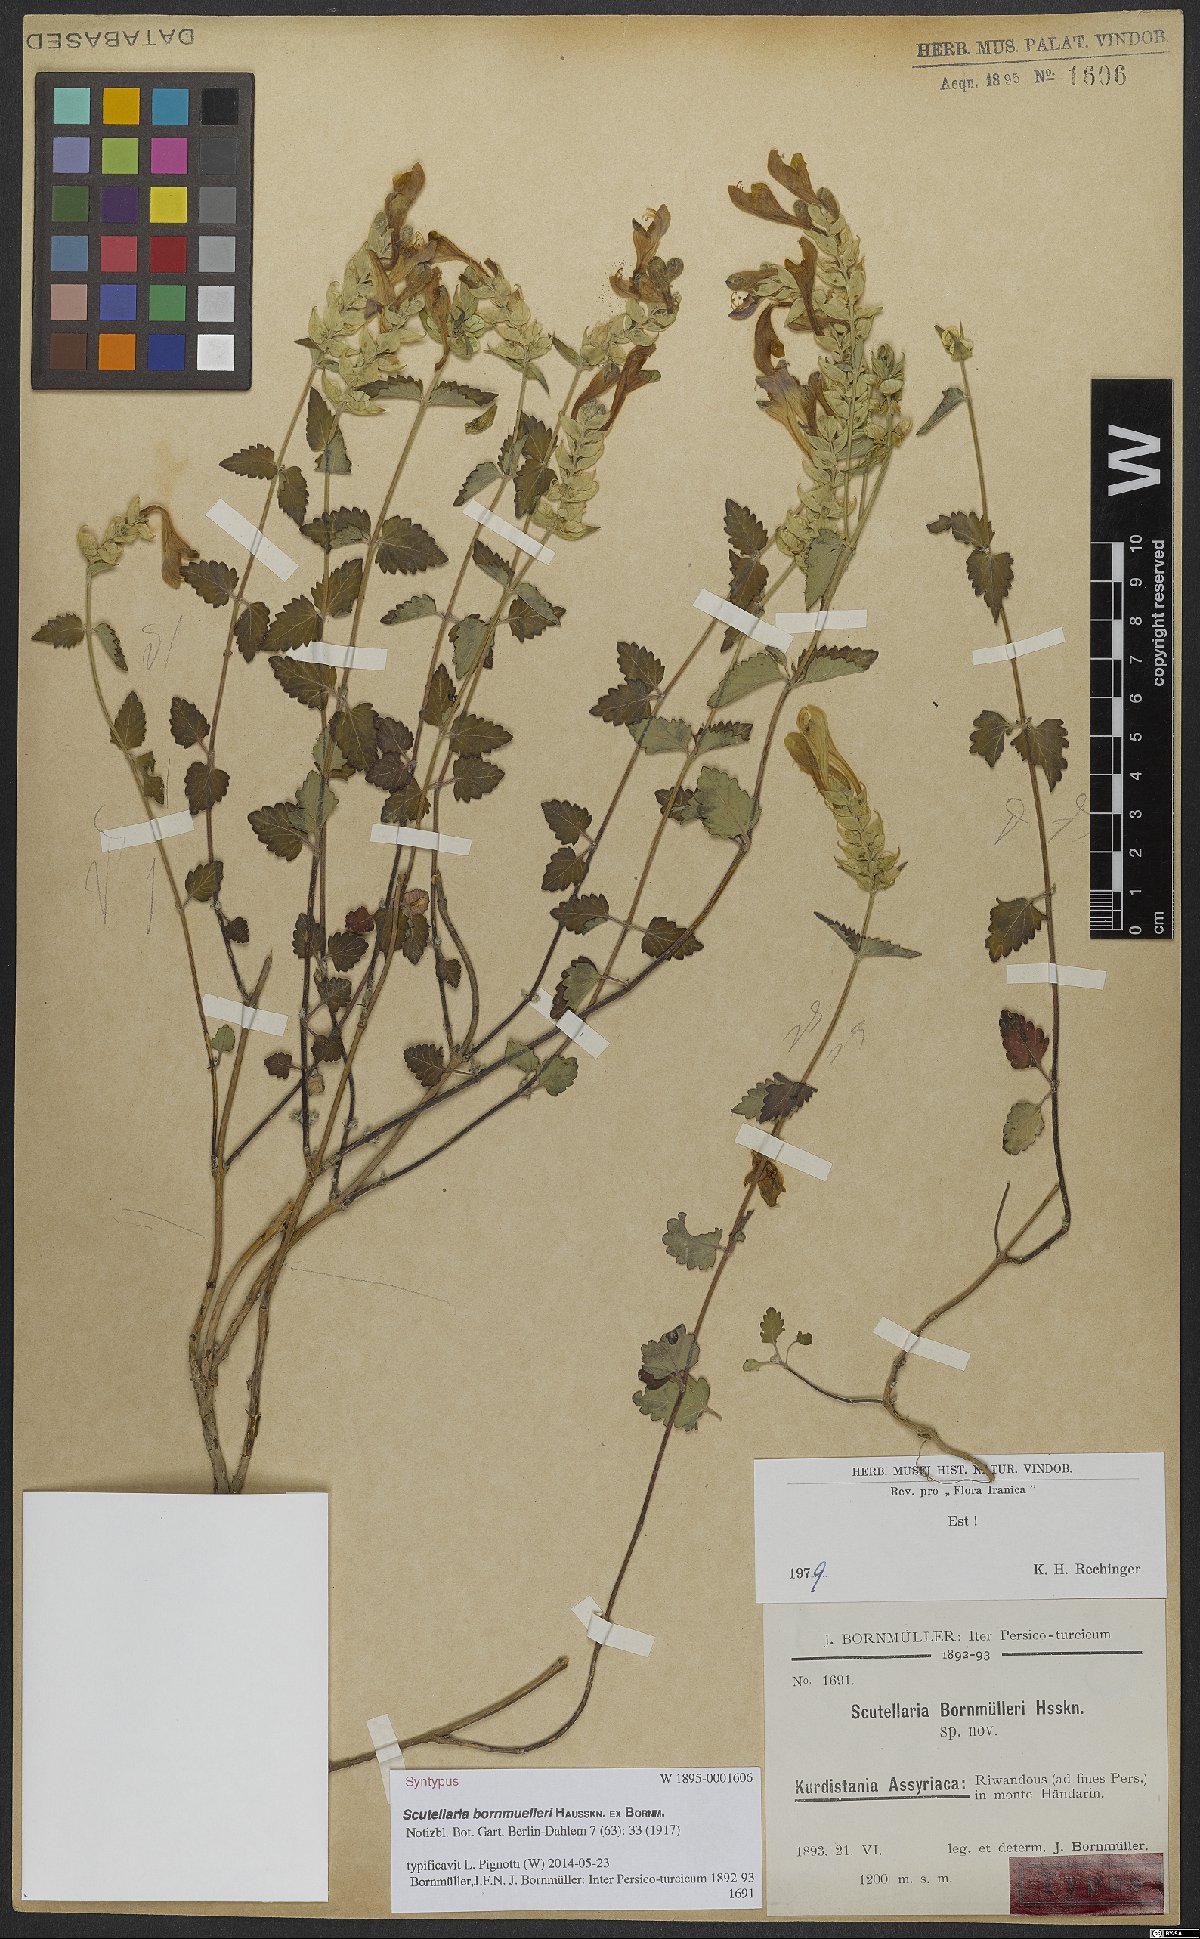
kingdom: Plantae
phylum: Tracheophyta
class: Magnoliopsida
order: Lamiales
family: Lamiaceae
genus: Scutellaria
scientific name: Scutellaria bornmuelleri
